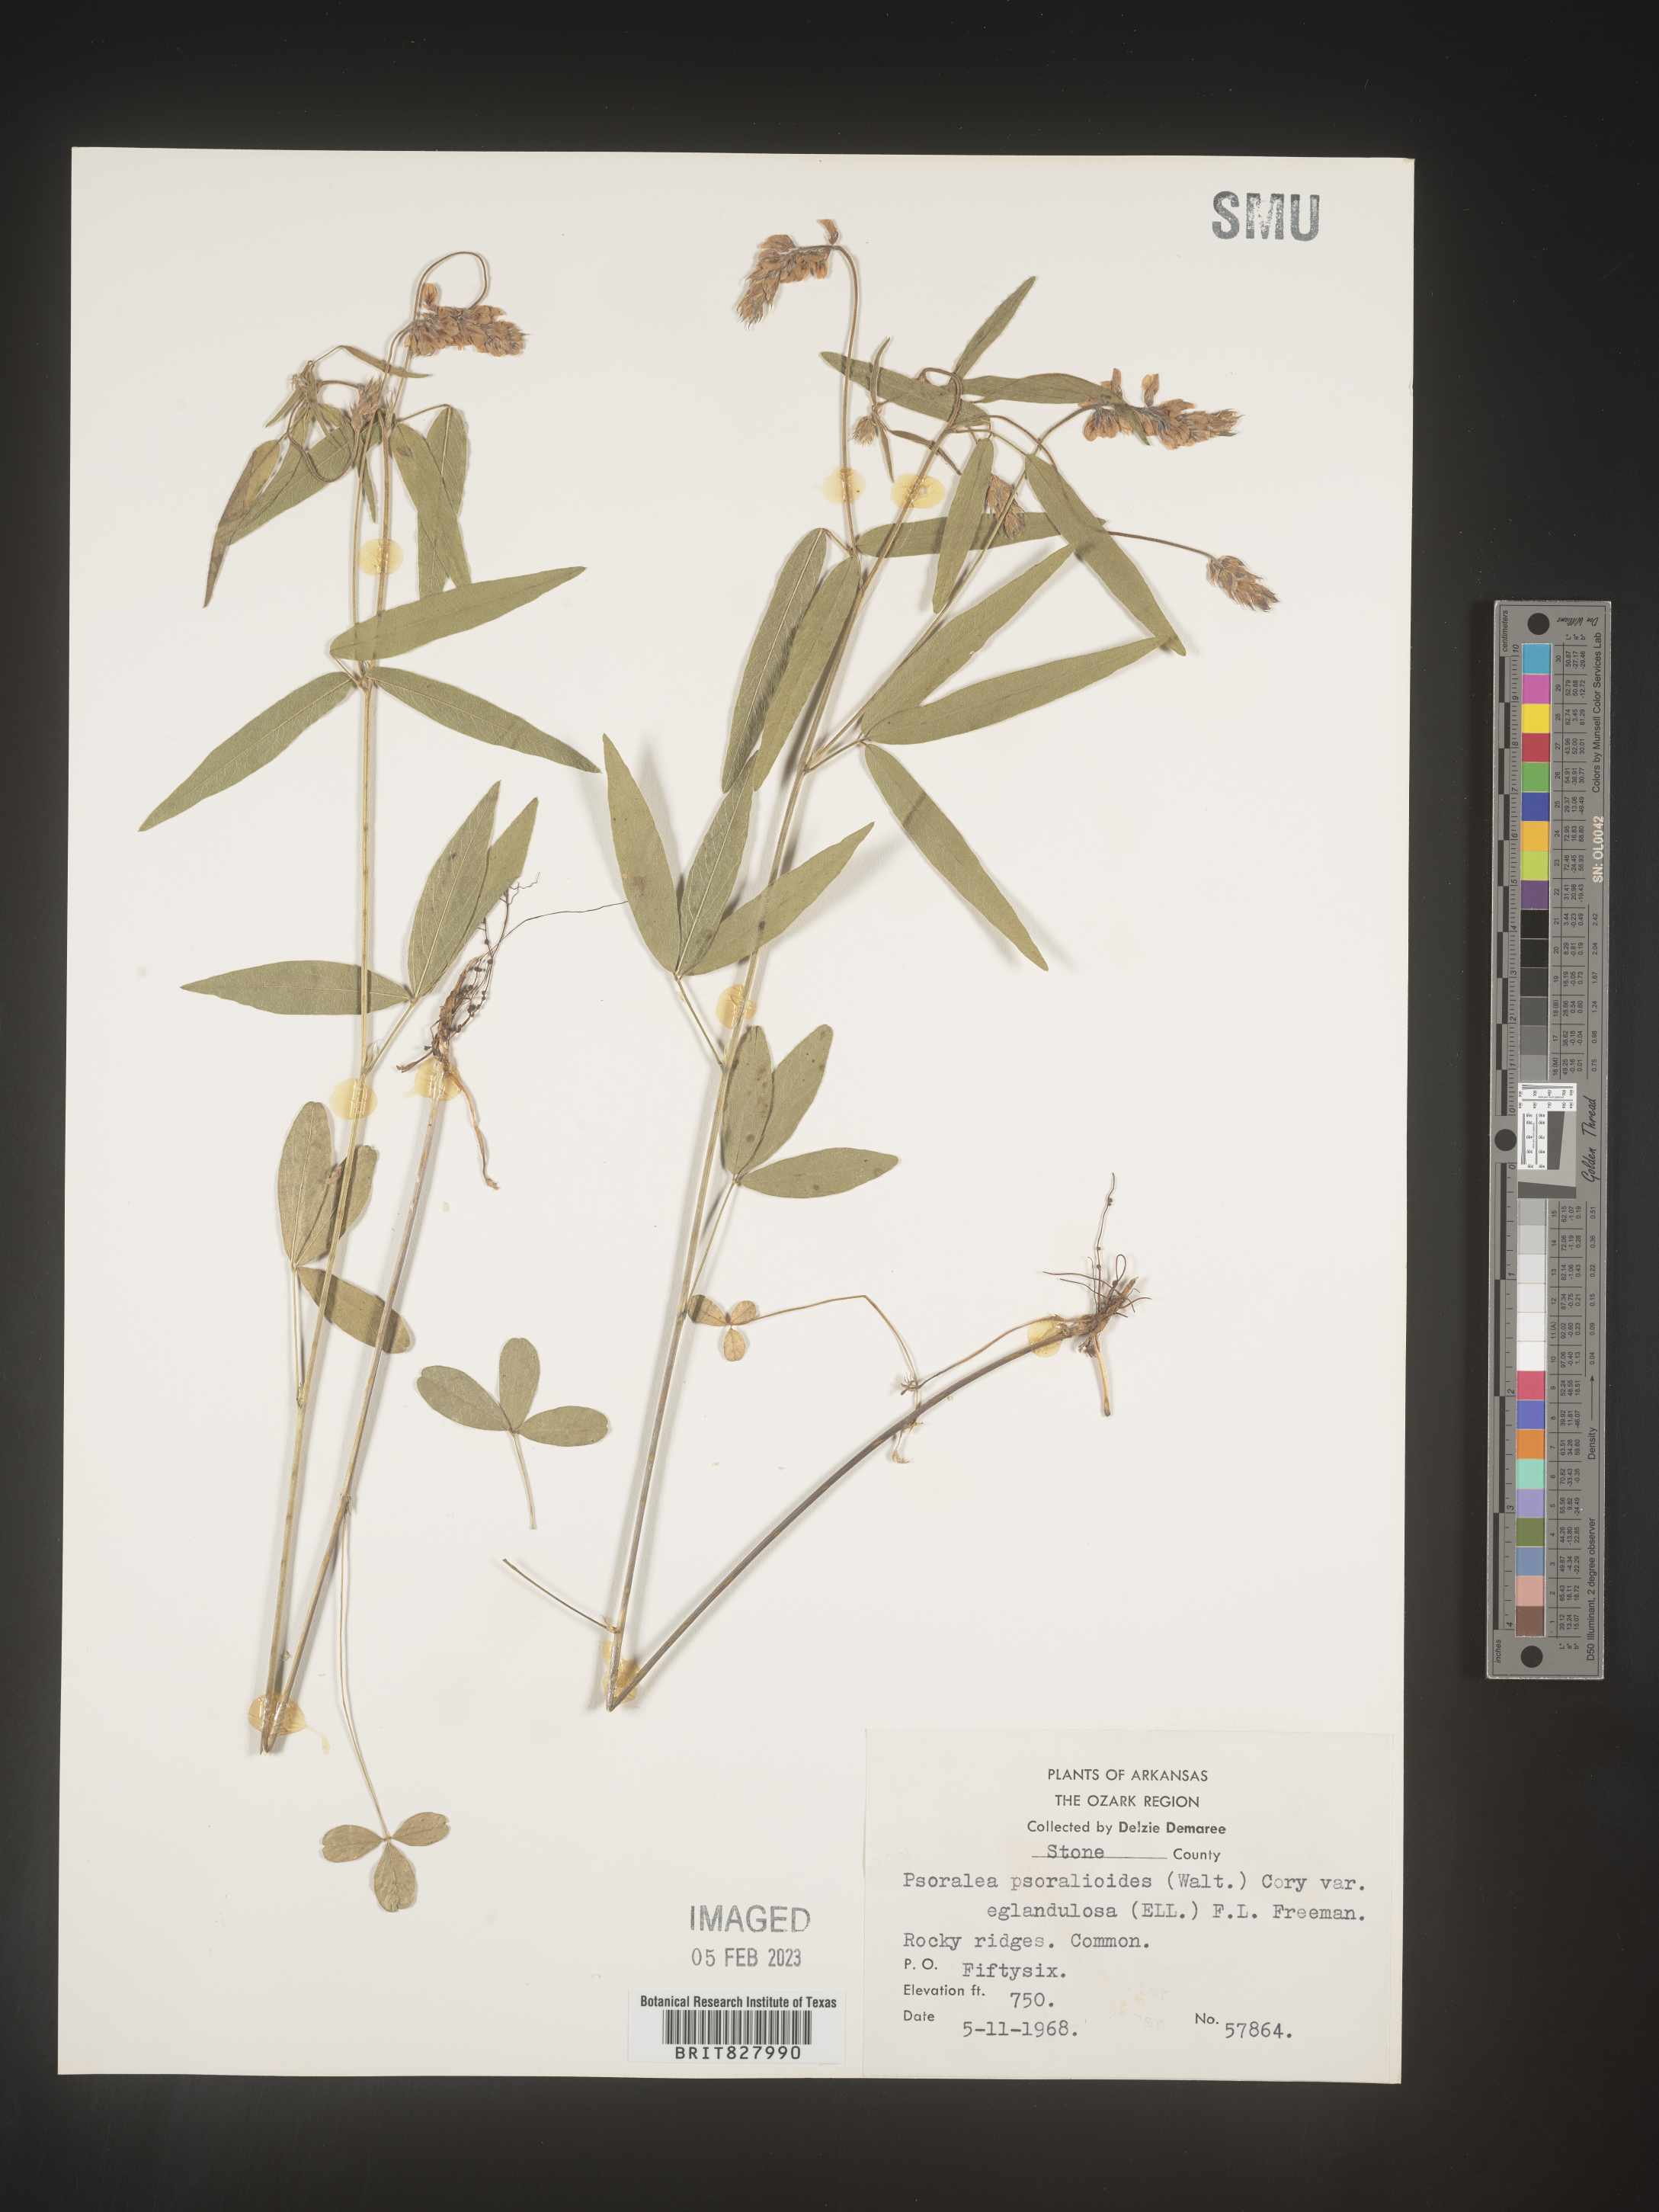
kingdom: Plantae
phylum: Tracheophyta
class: Magnoliopsida
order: Fabales
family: Fabaceae
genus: Orbexilum
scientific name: Orbexilum pedunculatum
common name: Sampson's snakeroot
